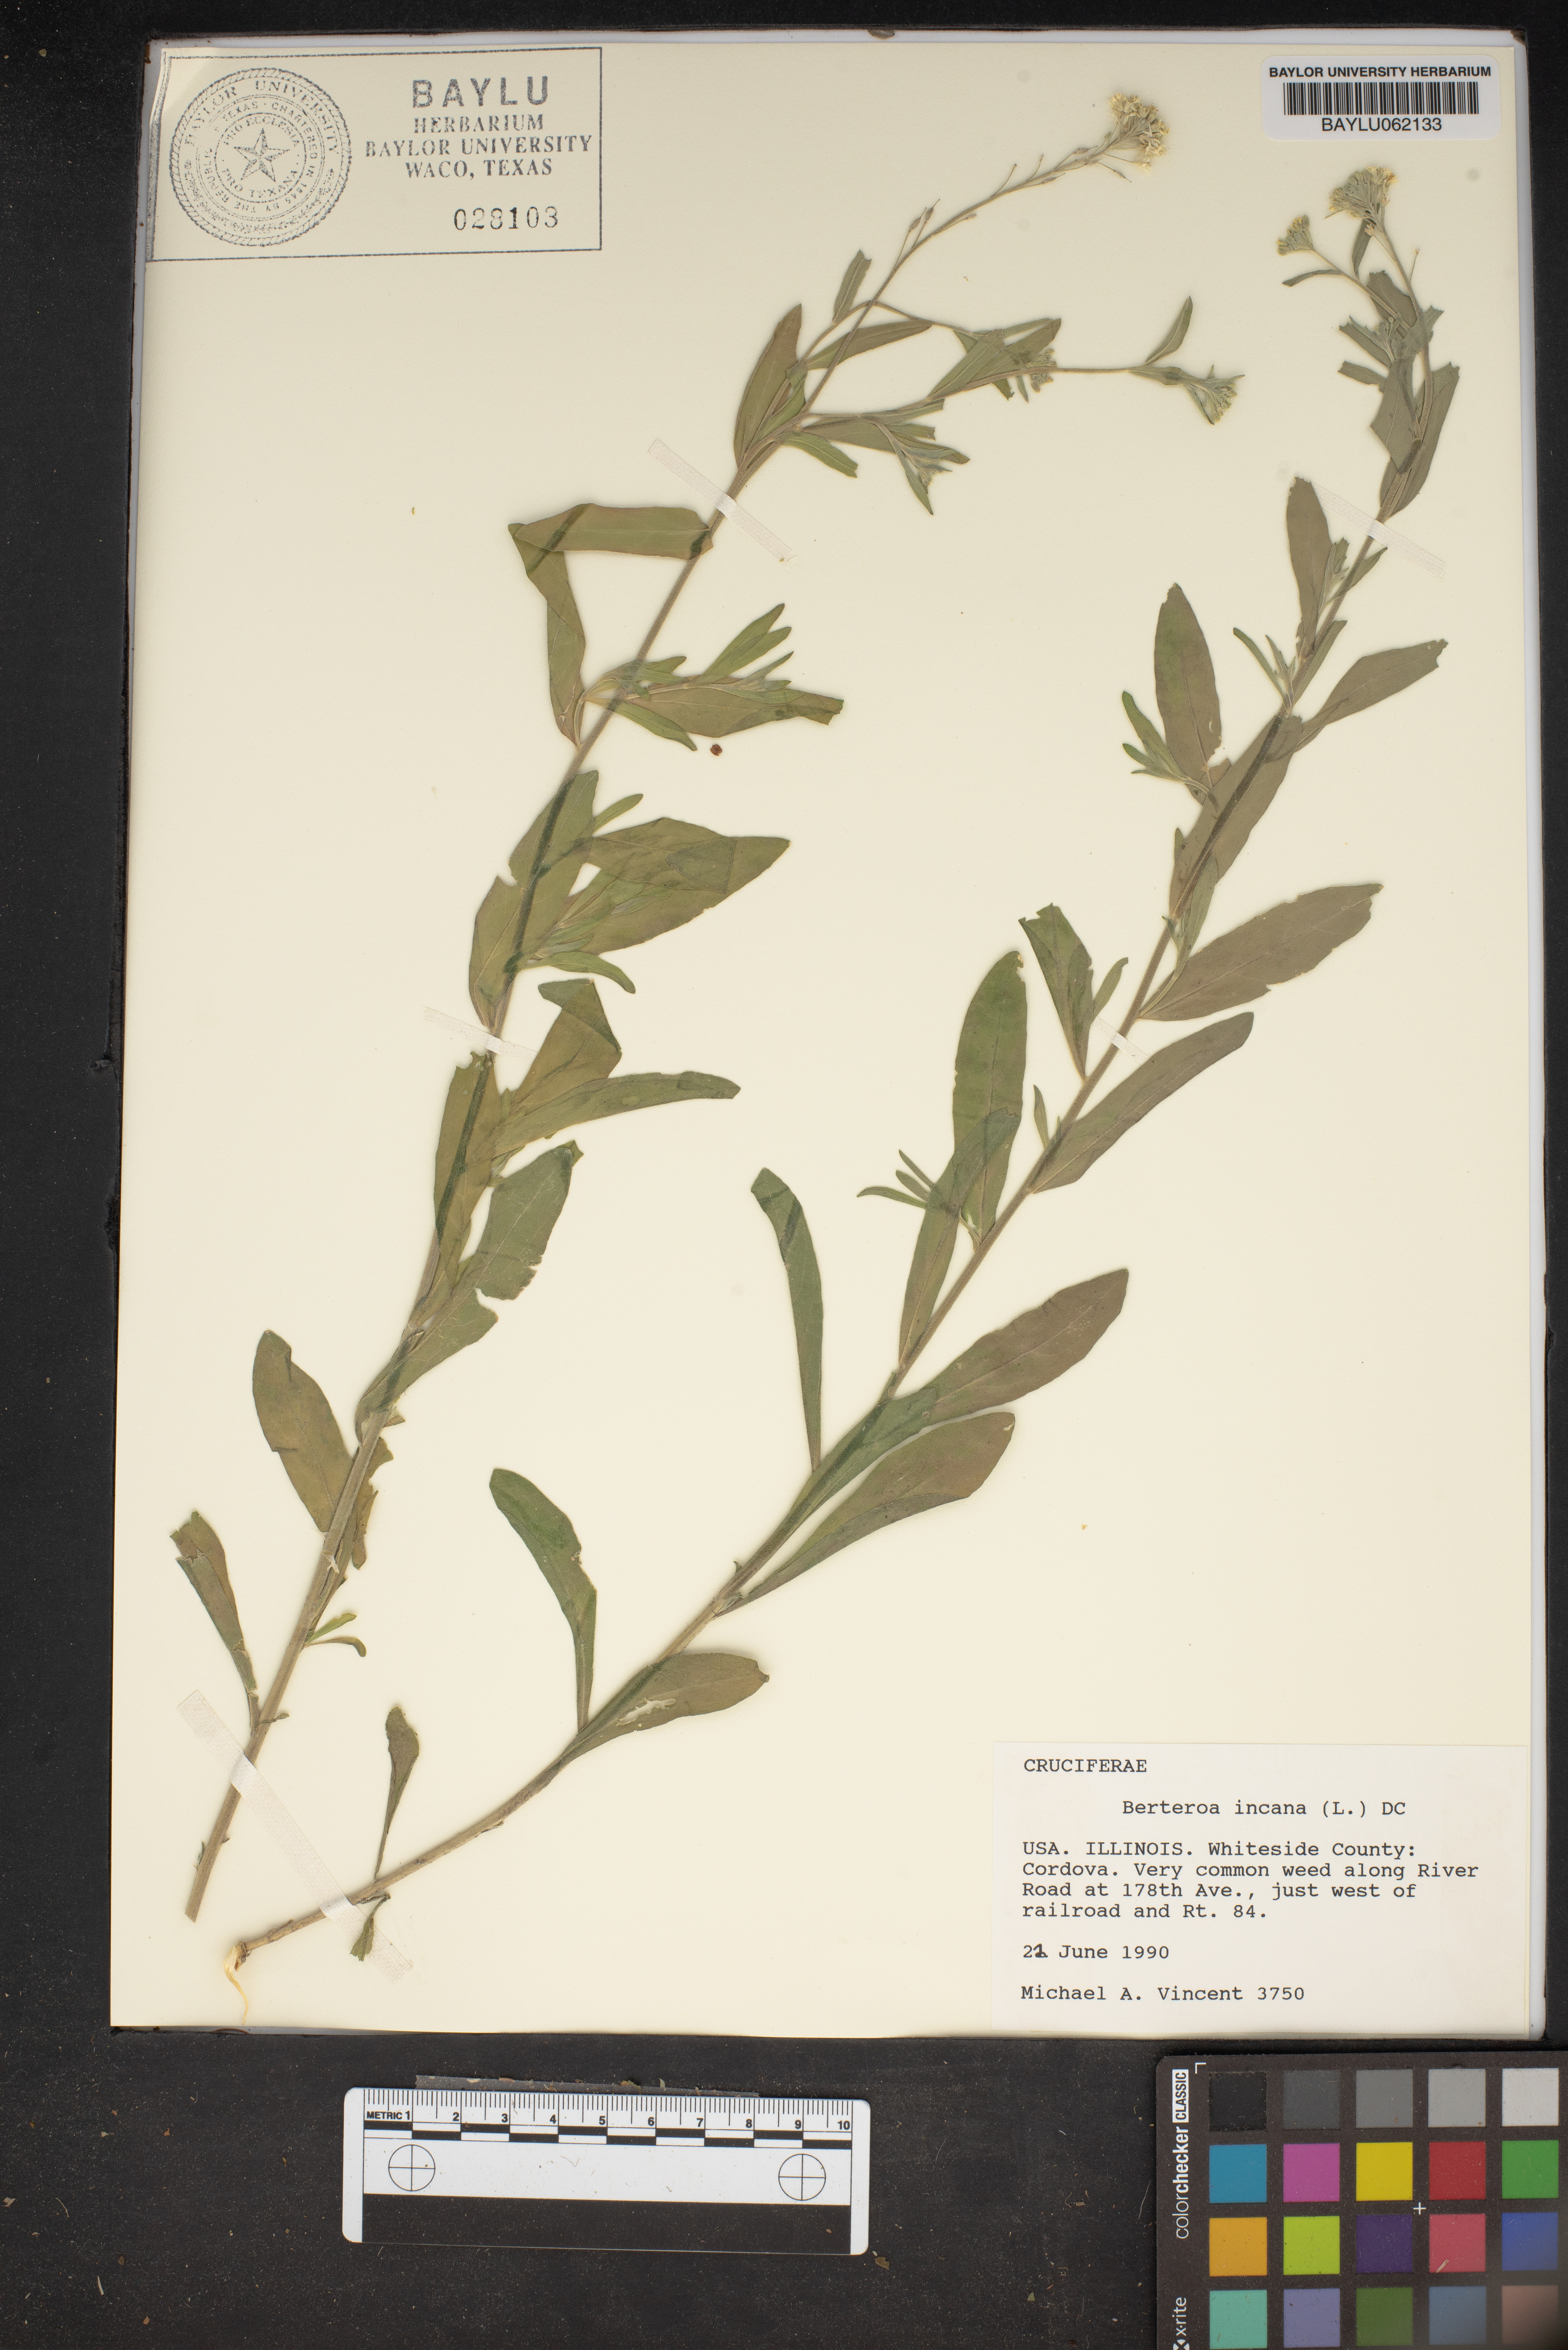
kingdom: Plantae
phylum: Tracheophyta
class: Magnoliopsida
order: Brassicales
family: Brassicaceae
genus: Berteroa
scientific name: Berteroa incana
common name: Hoary alison
